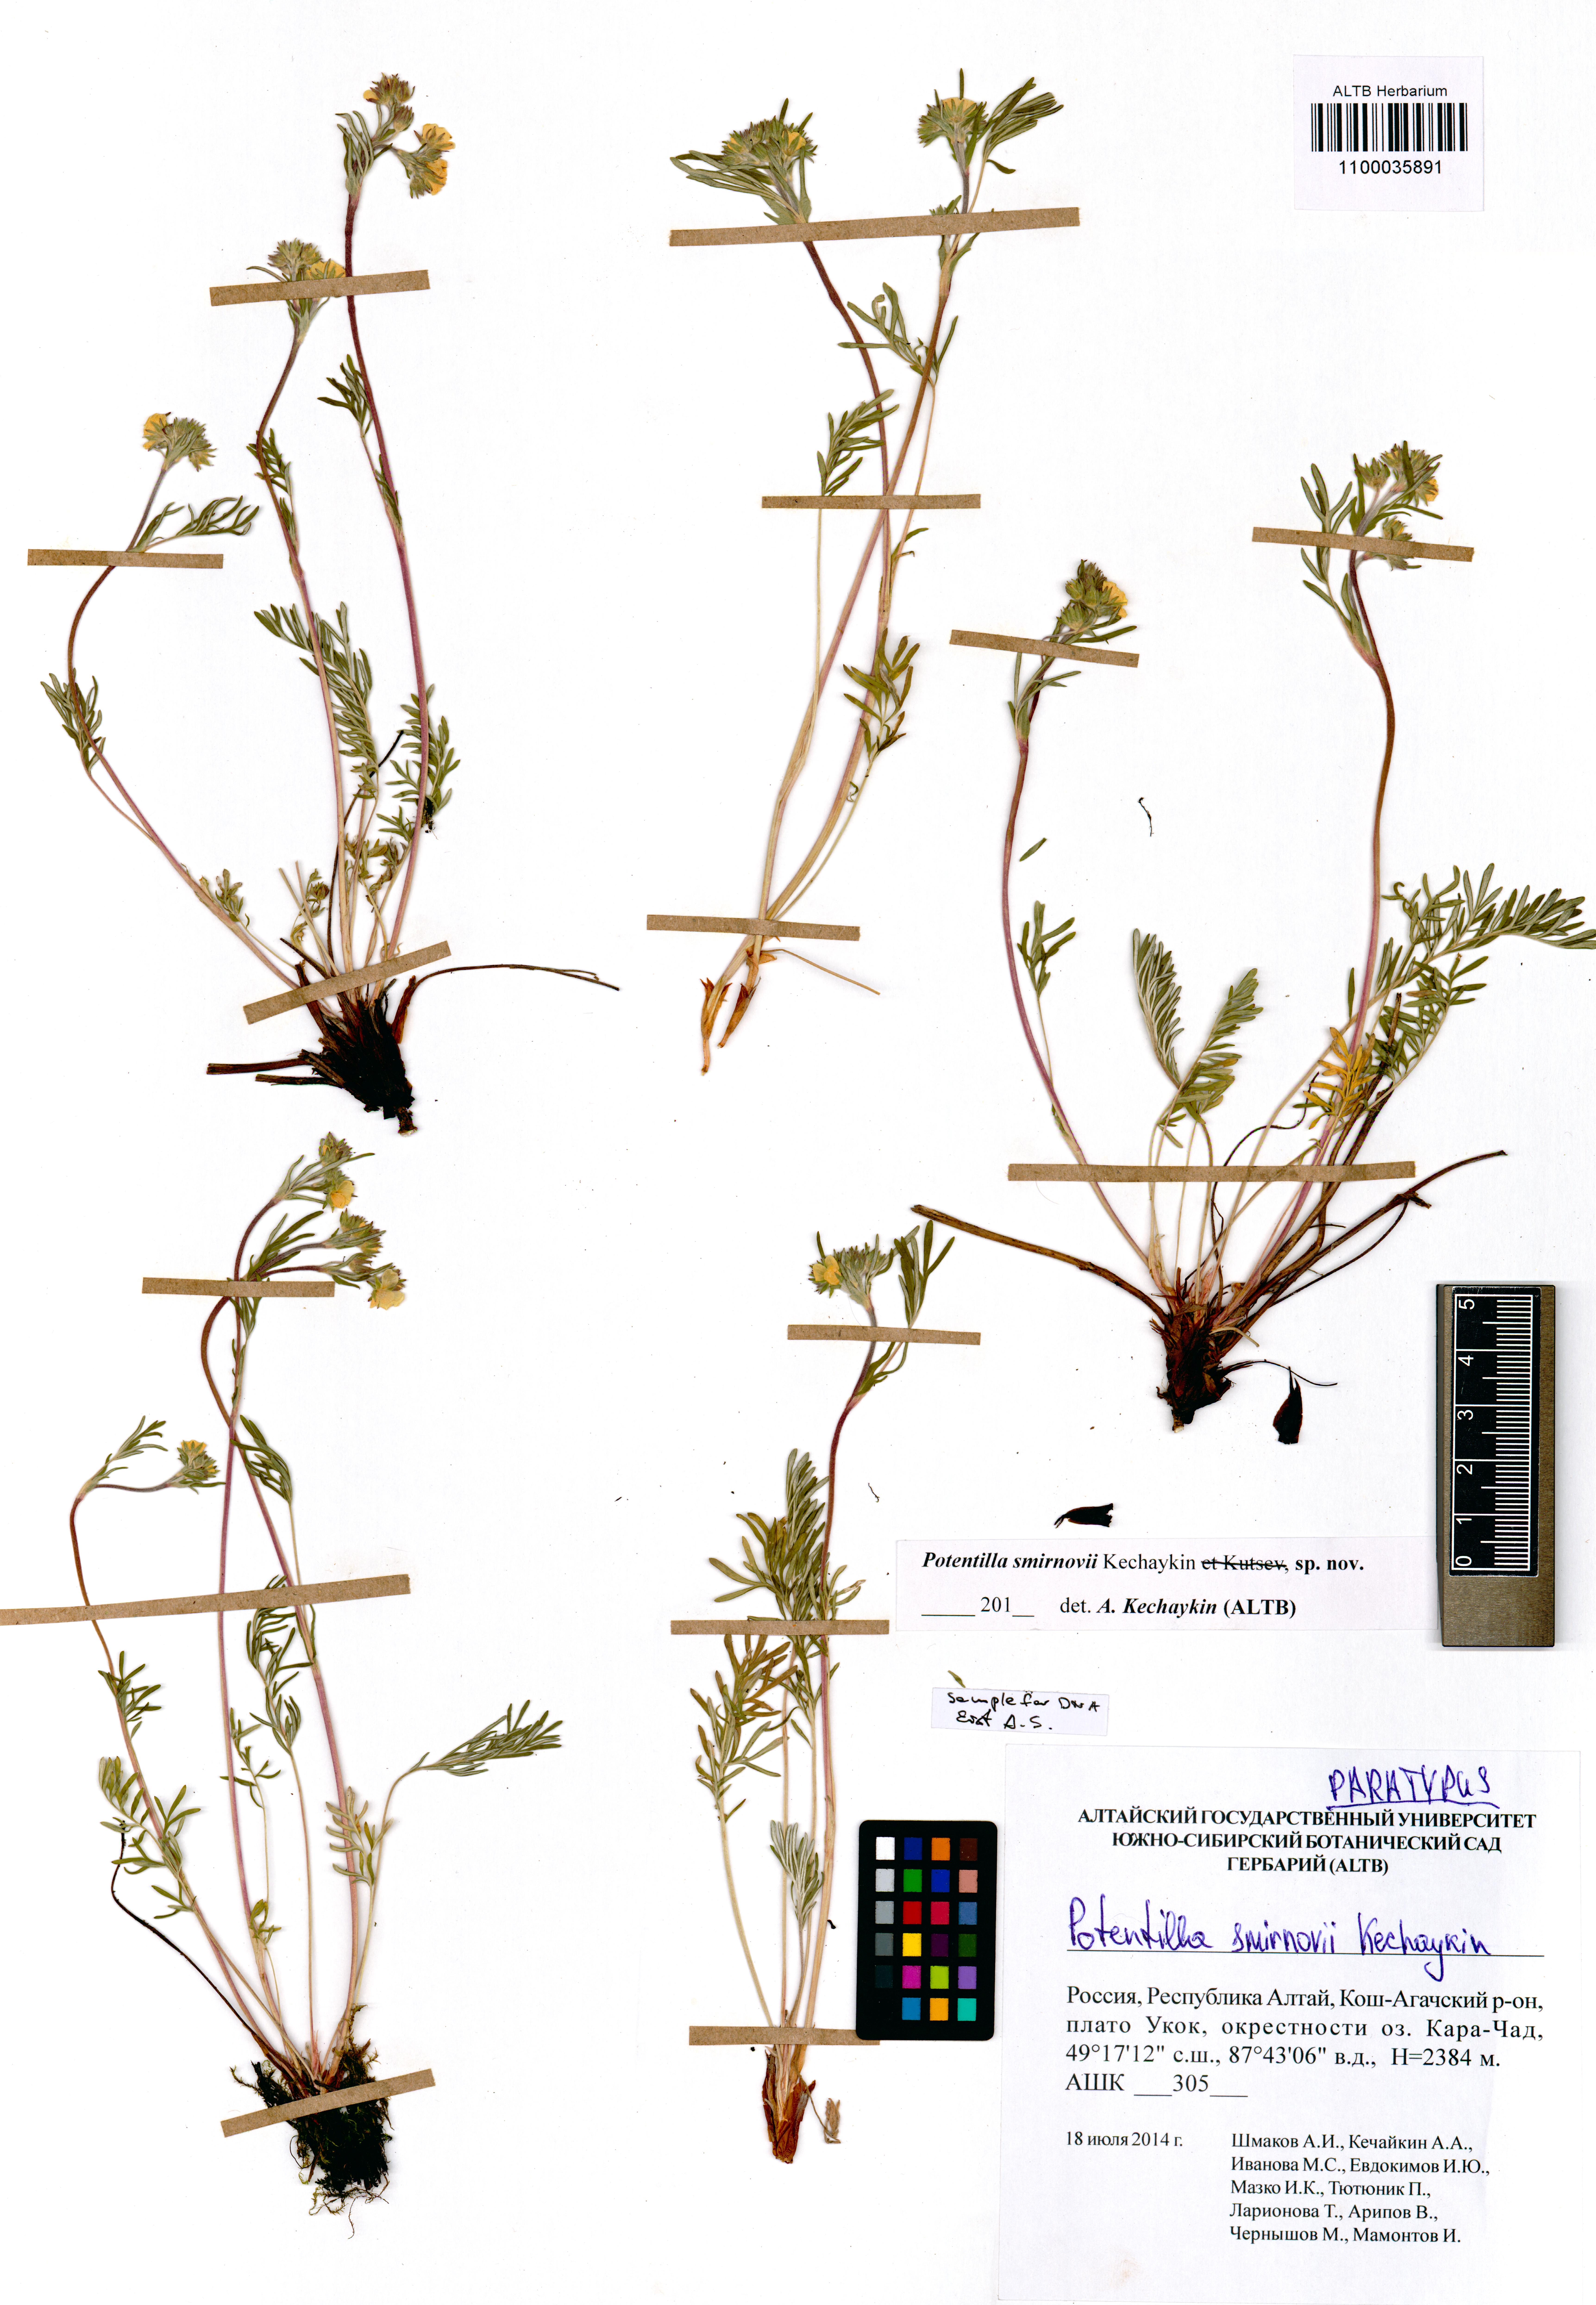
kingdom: Plantae
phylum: Tracheophyta
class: Magnoliopsida
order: Rosales
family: Rosaceae
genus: Potentilla
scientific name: Potentilla smirnovii
